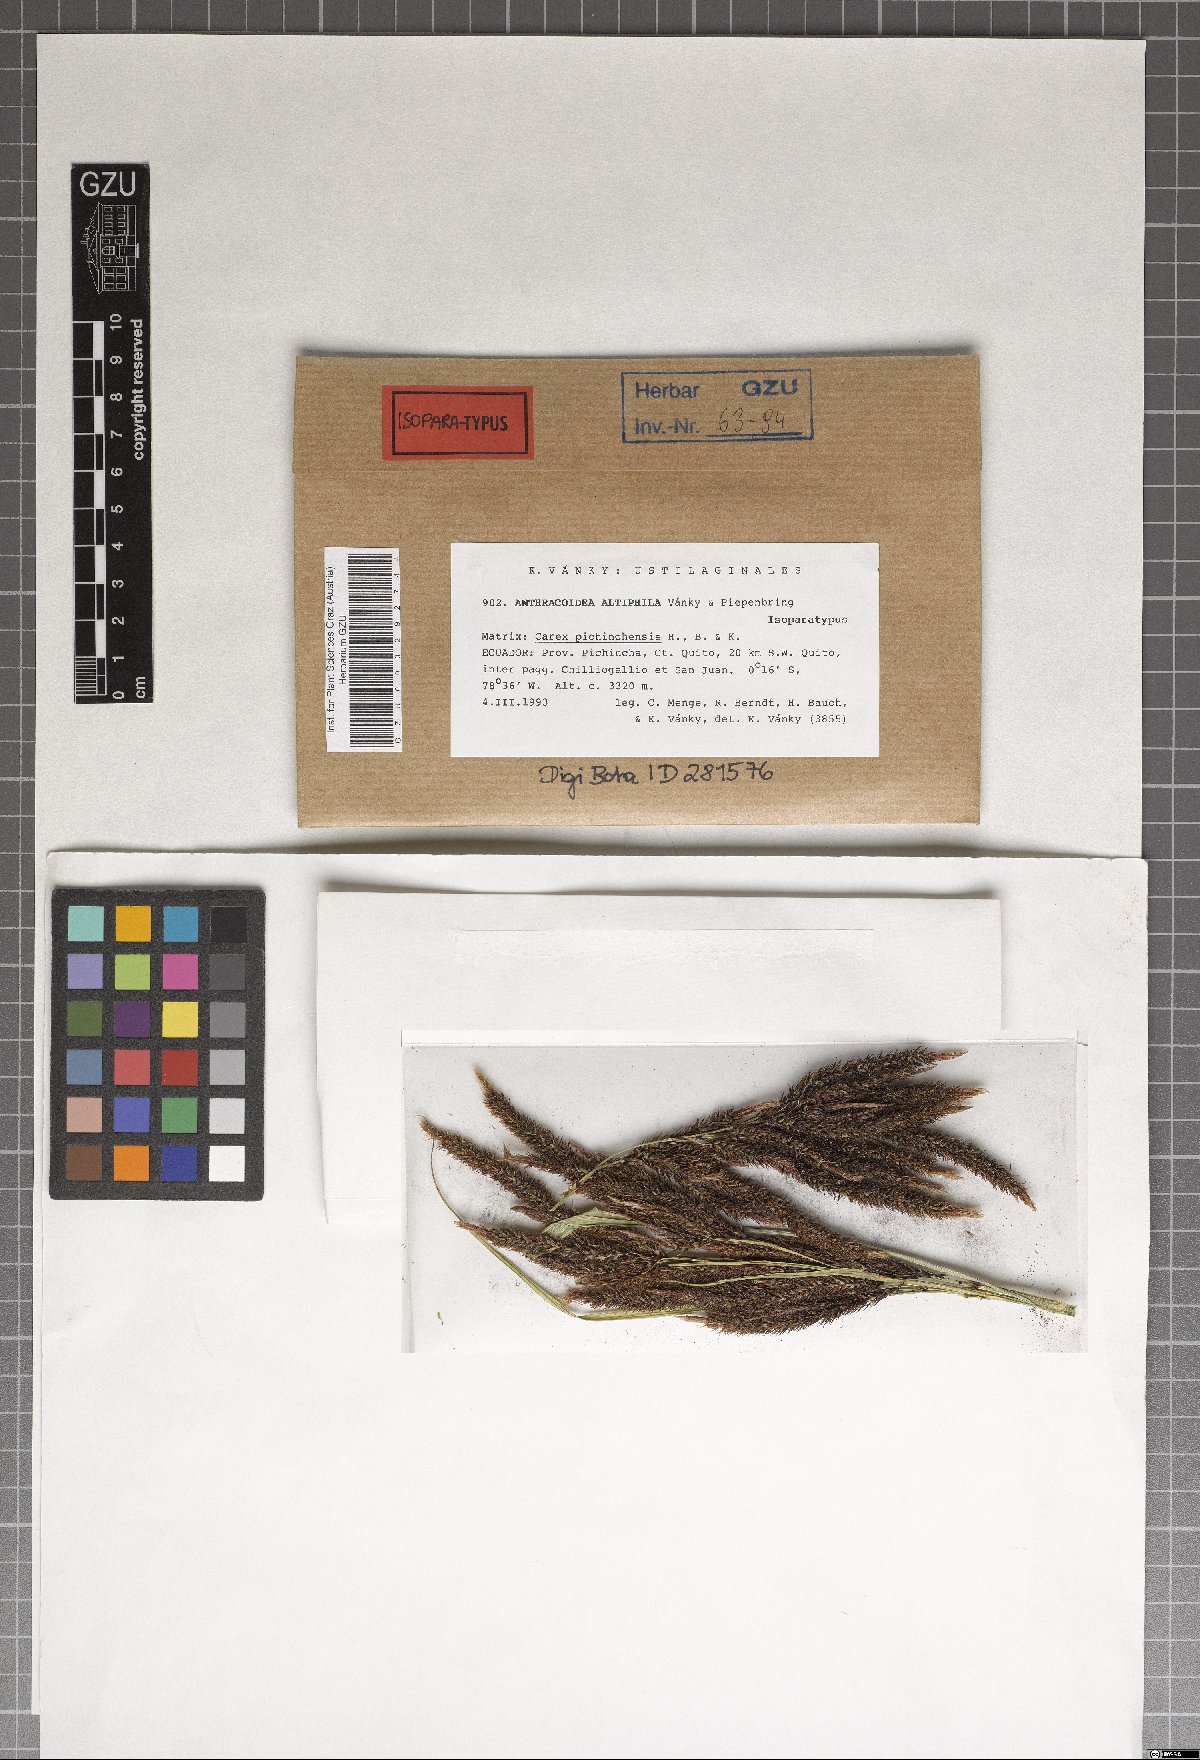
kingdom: Fungi
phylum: Basidiomycota
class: Ustilaginomycetes
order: Ustilaginales
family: Anthracoideaceae
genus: Anthracoidea
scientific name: Anthracoidea altiphila
